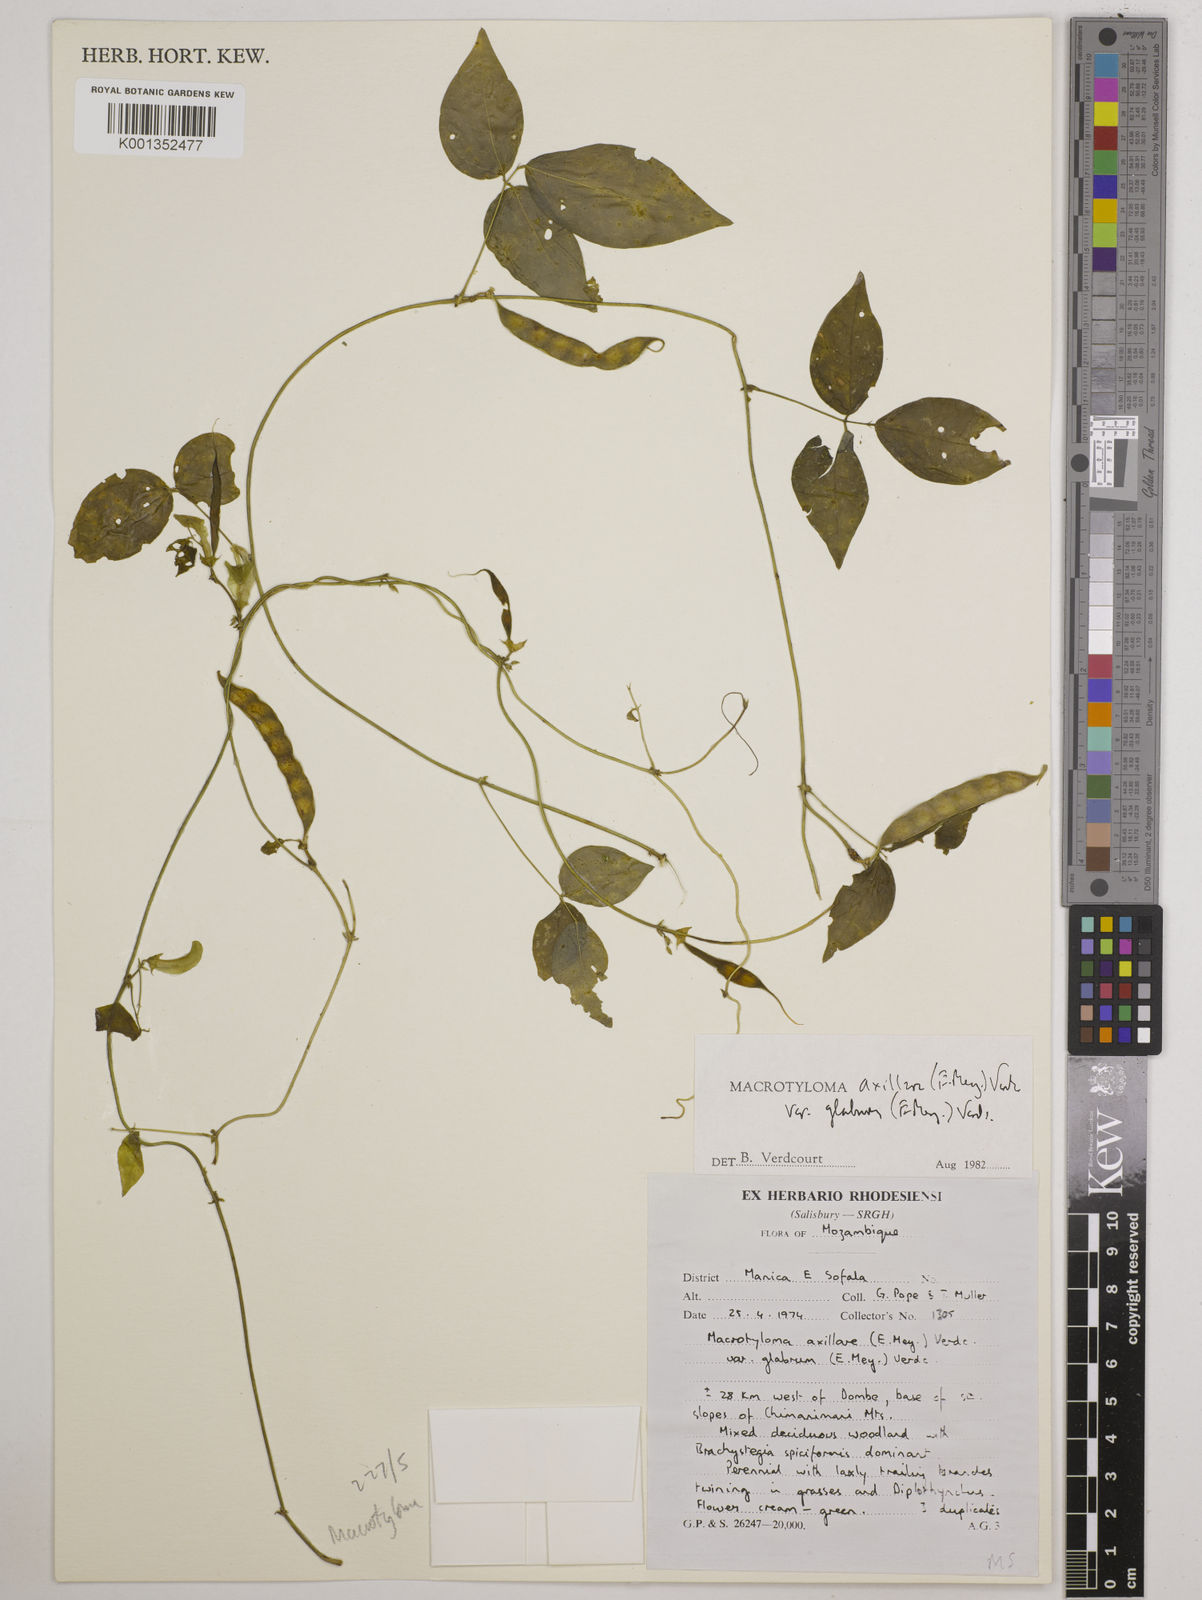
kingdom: Plantae
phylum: Tracheophyta
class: Magnoliopsida
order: Fabales
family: Fabaceae
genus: Macrotyloma
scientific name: Macrotyloma
